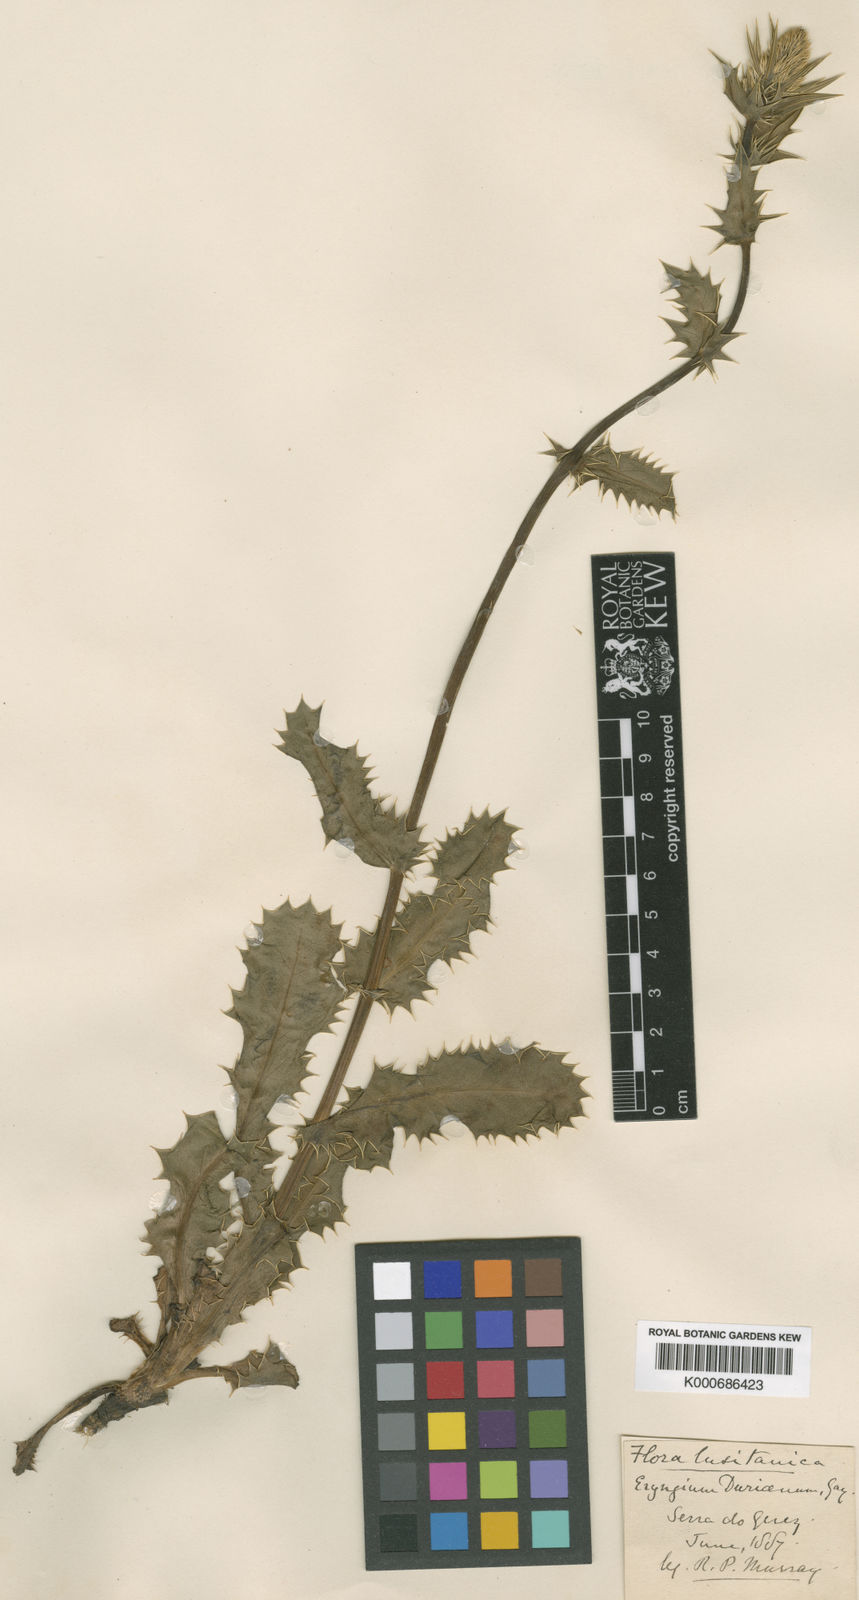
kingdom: Plantae
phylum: Tracheophyta
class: Magnoliopsida
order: Apiales
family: Apiaceae
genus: Eryngium
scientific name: Eryngium duriaei
